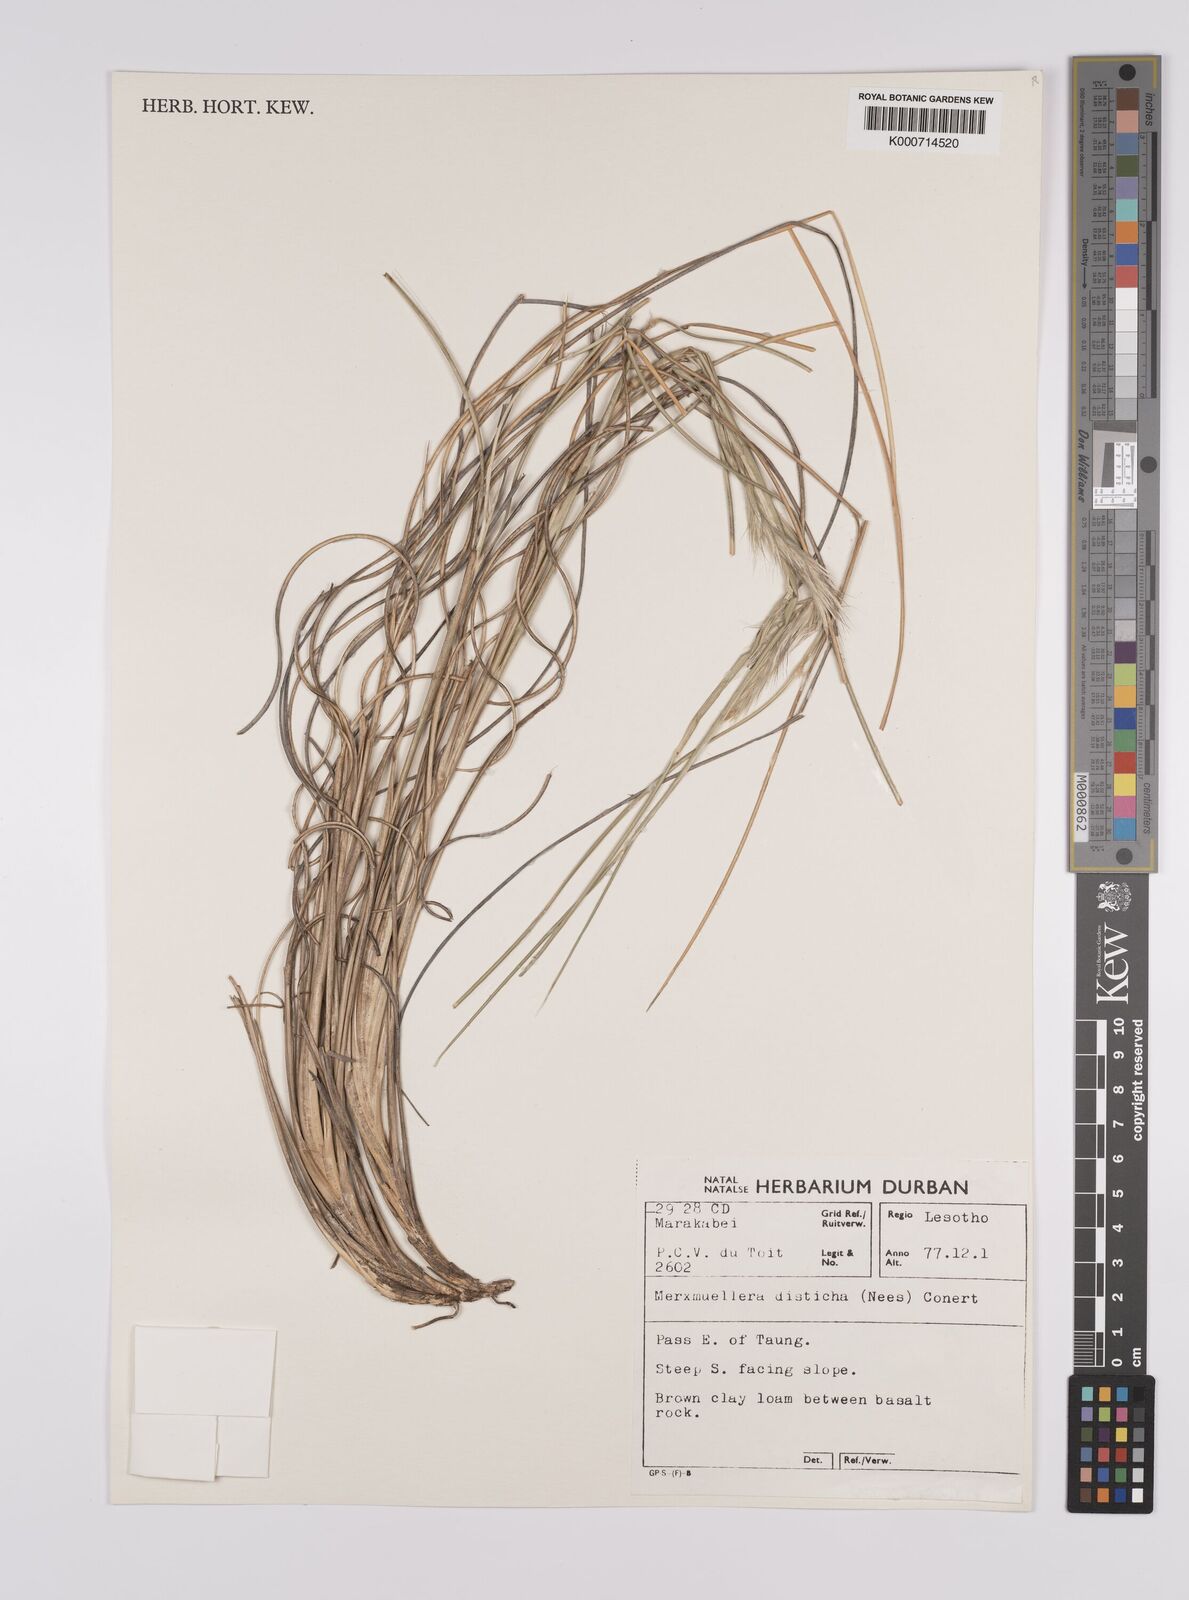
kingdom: Plantae
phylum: Tracheophyta
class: Liliopsida
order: Poales
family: Poaceae
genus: Tenaxia
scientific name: Tenaxia disticha
